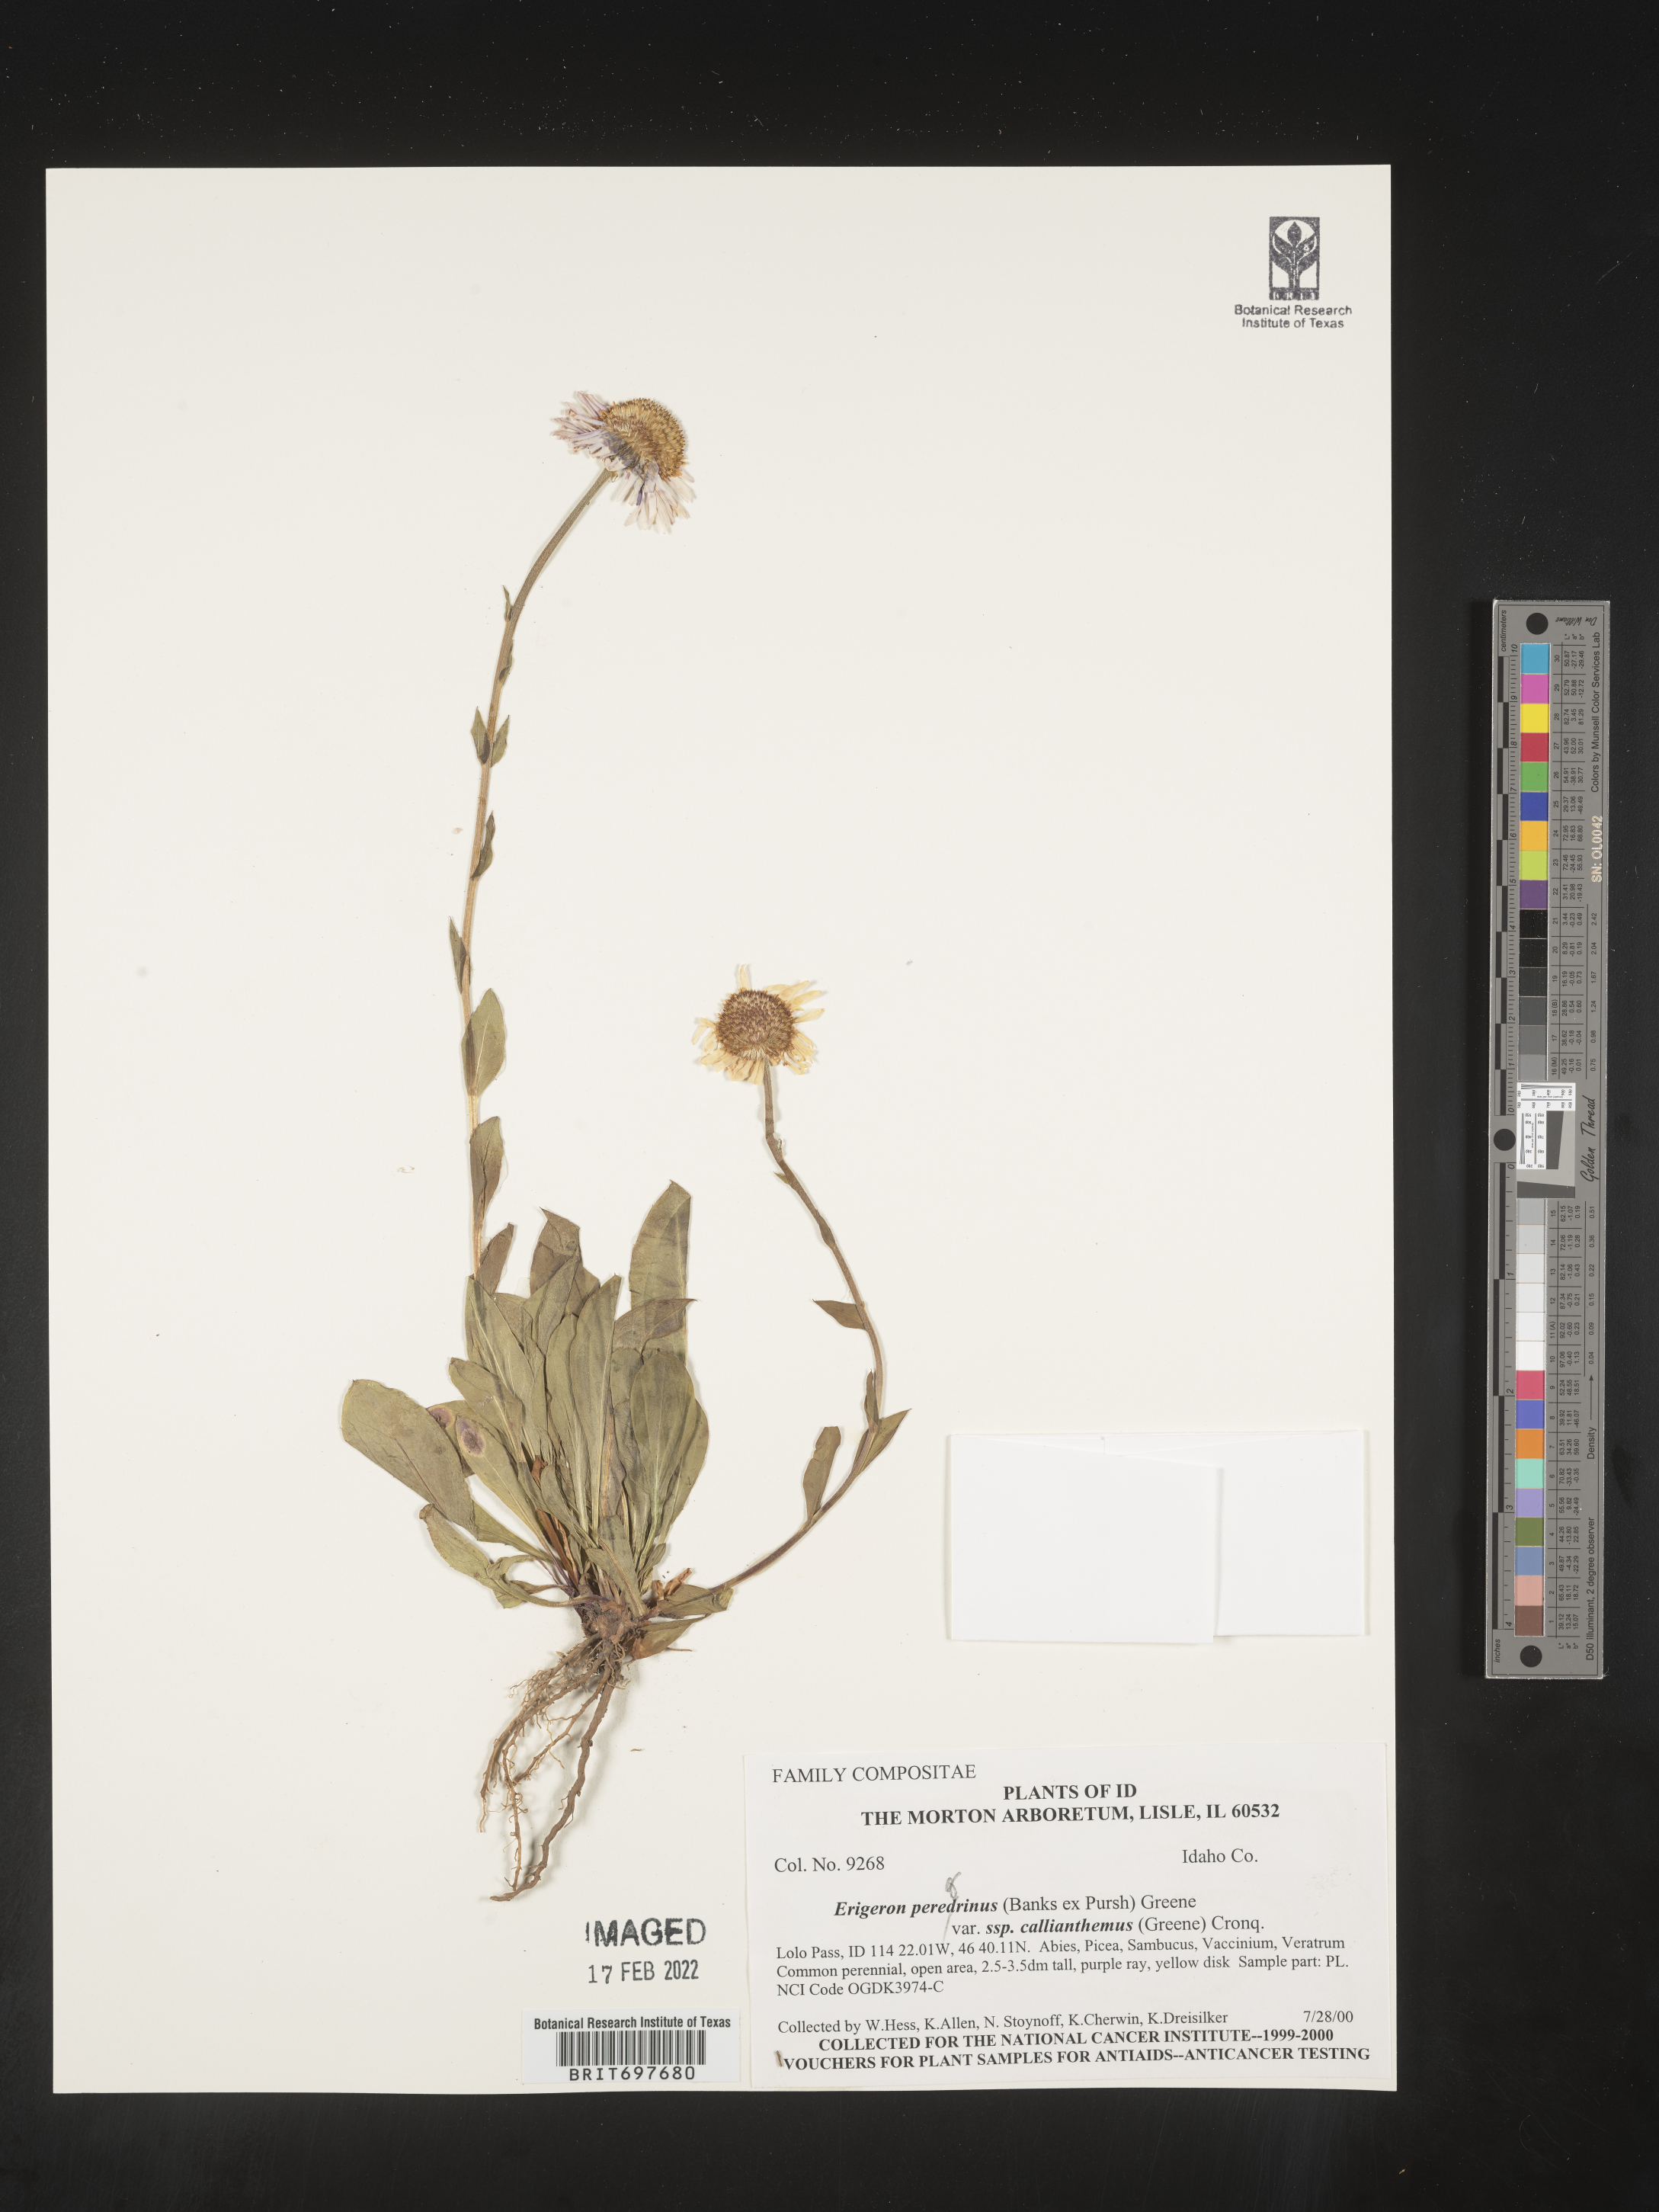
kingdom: Plantae
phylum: Tracheophyta
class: Magnoliopsida
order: Asterales
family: Asteraceae
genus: Erigeron
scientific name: Erigeron glacialis
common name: Subalpine fleabane
